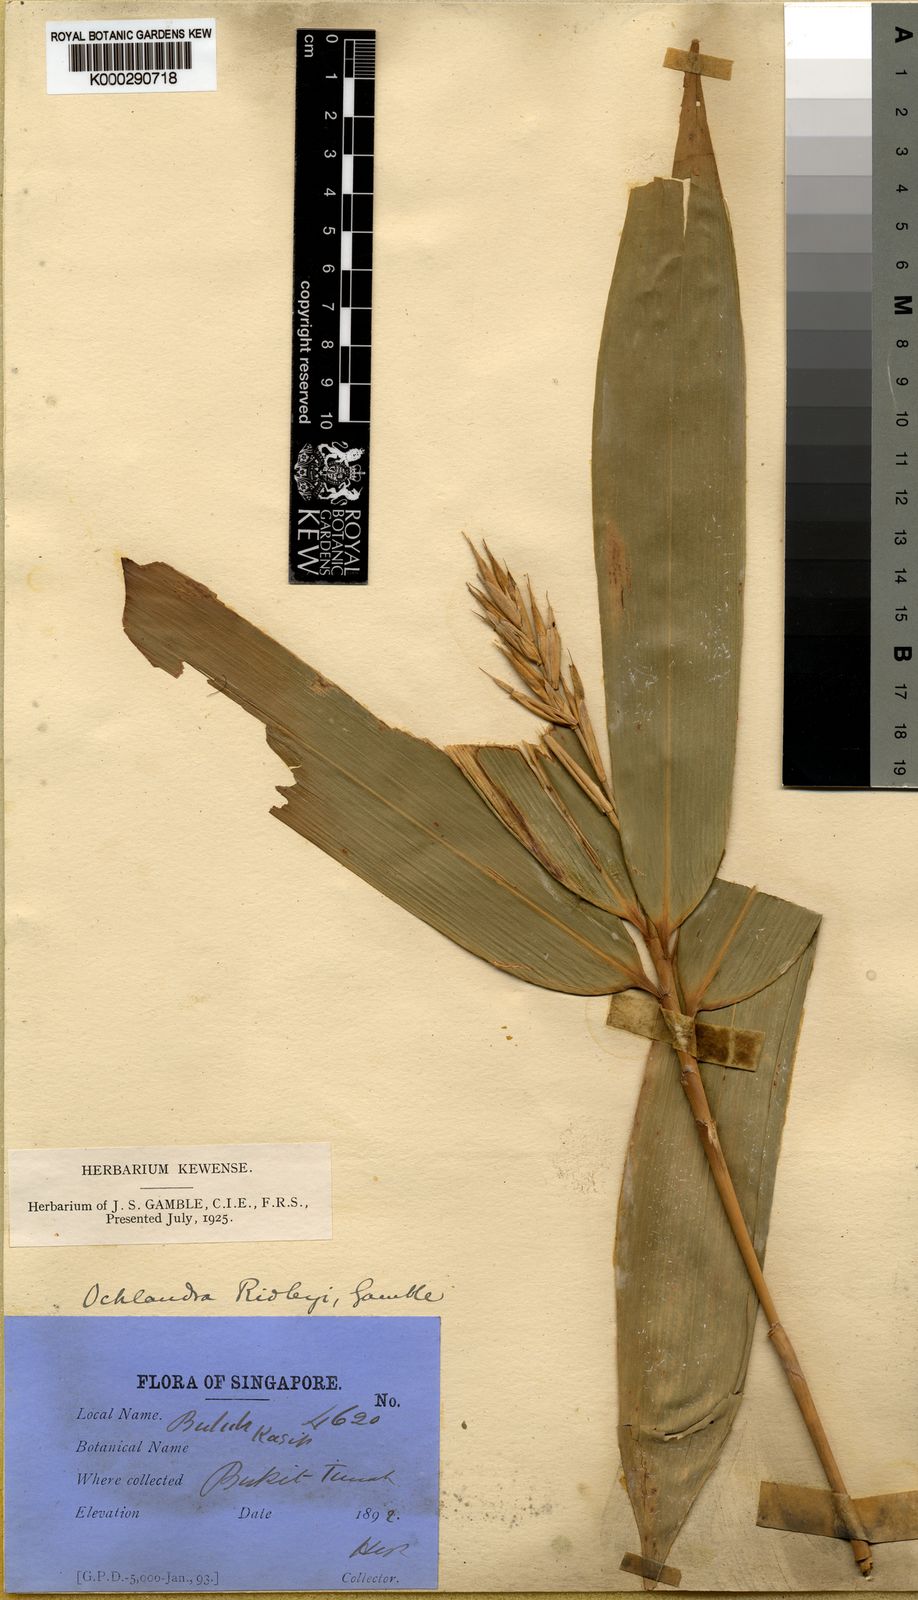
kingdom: Plantae
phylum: Tracheophyta
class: Liliopsida
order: Poales
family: Poaceae
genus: Schizostachyum
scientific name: Schizostachyum latifolium
